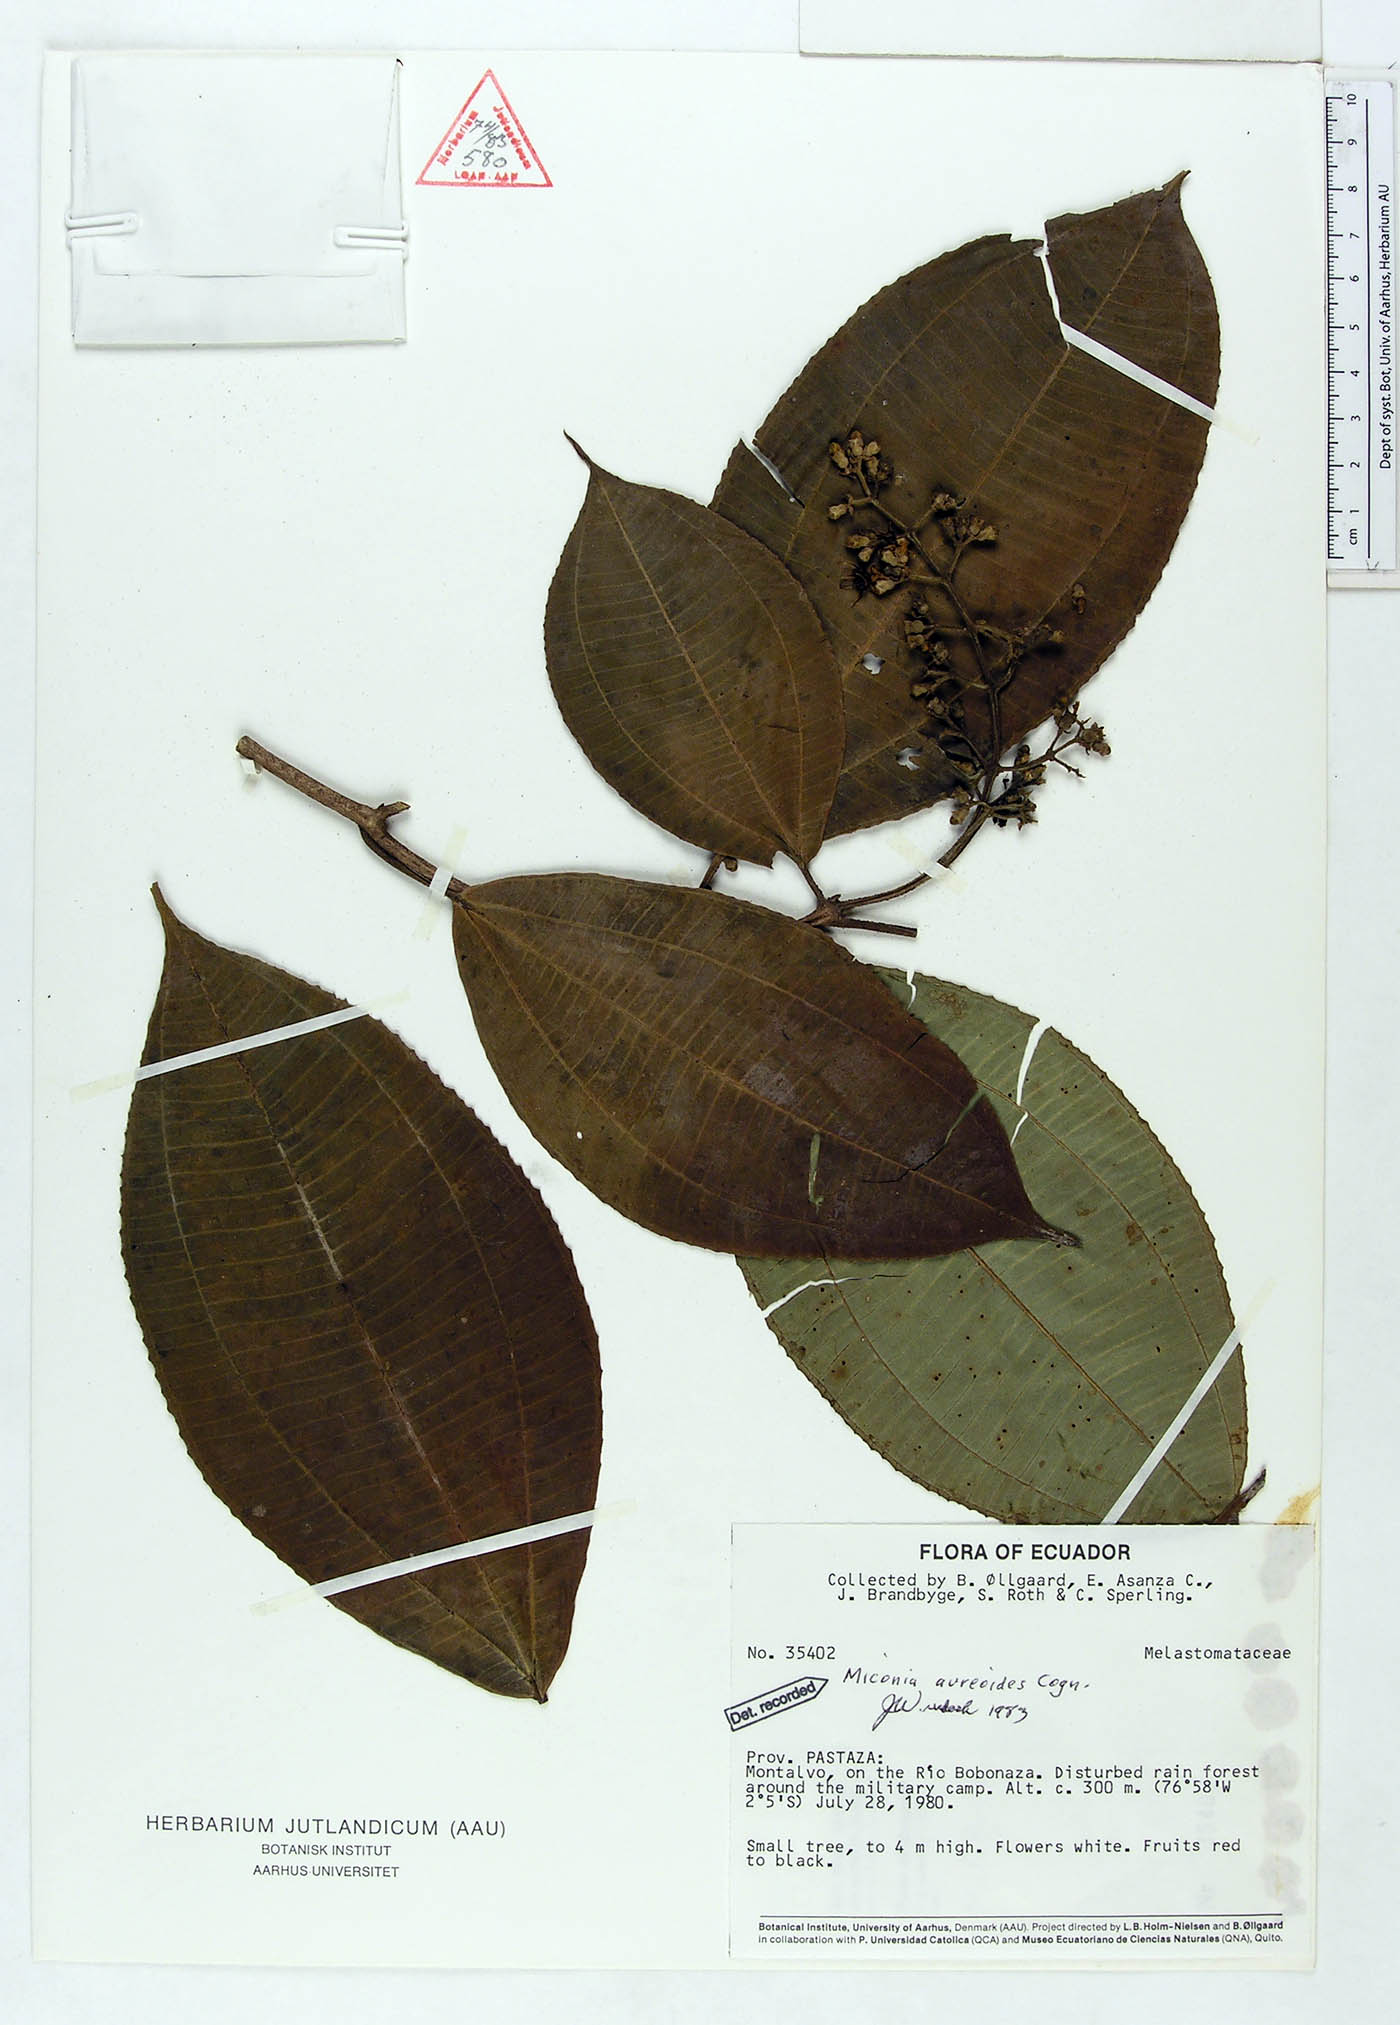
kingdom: Plantae
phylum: Tracheophyta
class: Magnoliopsida
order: Myrtales
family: Melastomataceae
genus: Miconia
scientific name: Miconia aureoides
